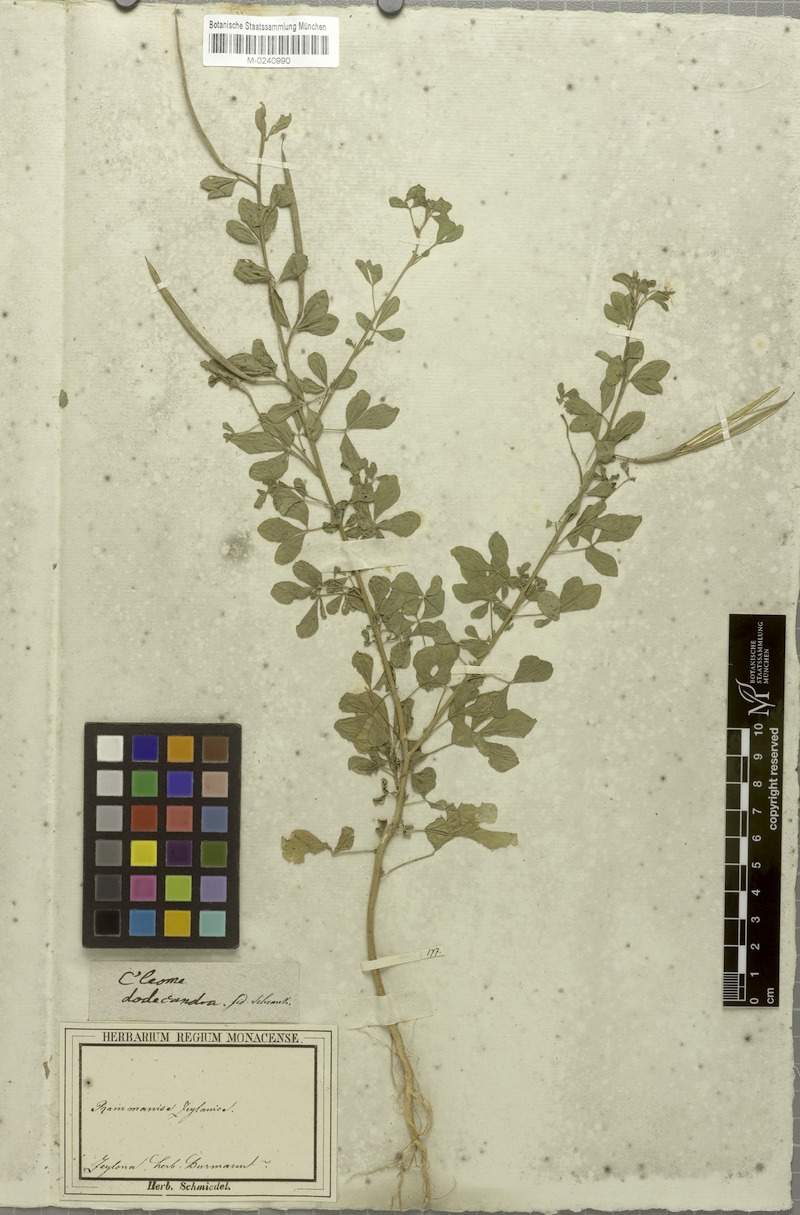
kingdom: Plantae
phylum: Tracheophyta
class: Magnoliopsida
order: Brassicales
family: Cleomaceae
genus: Arivela
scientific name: Arivela viscosa
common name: Asian spiderflower
